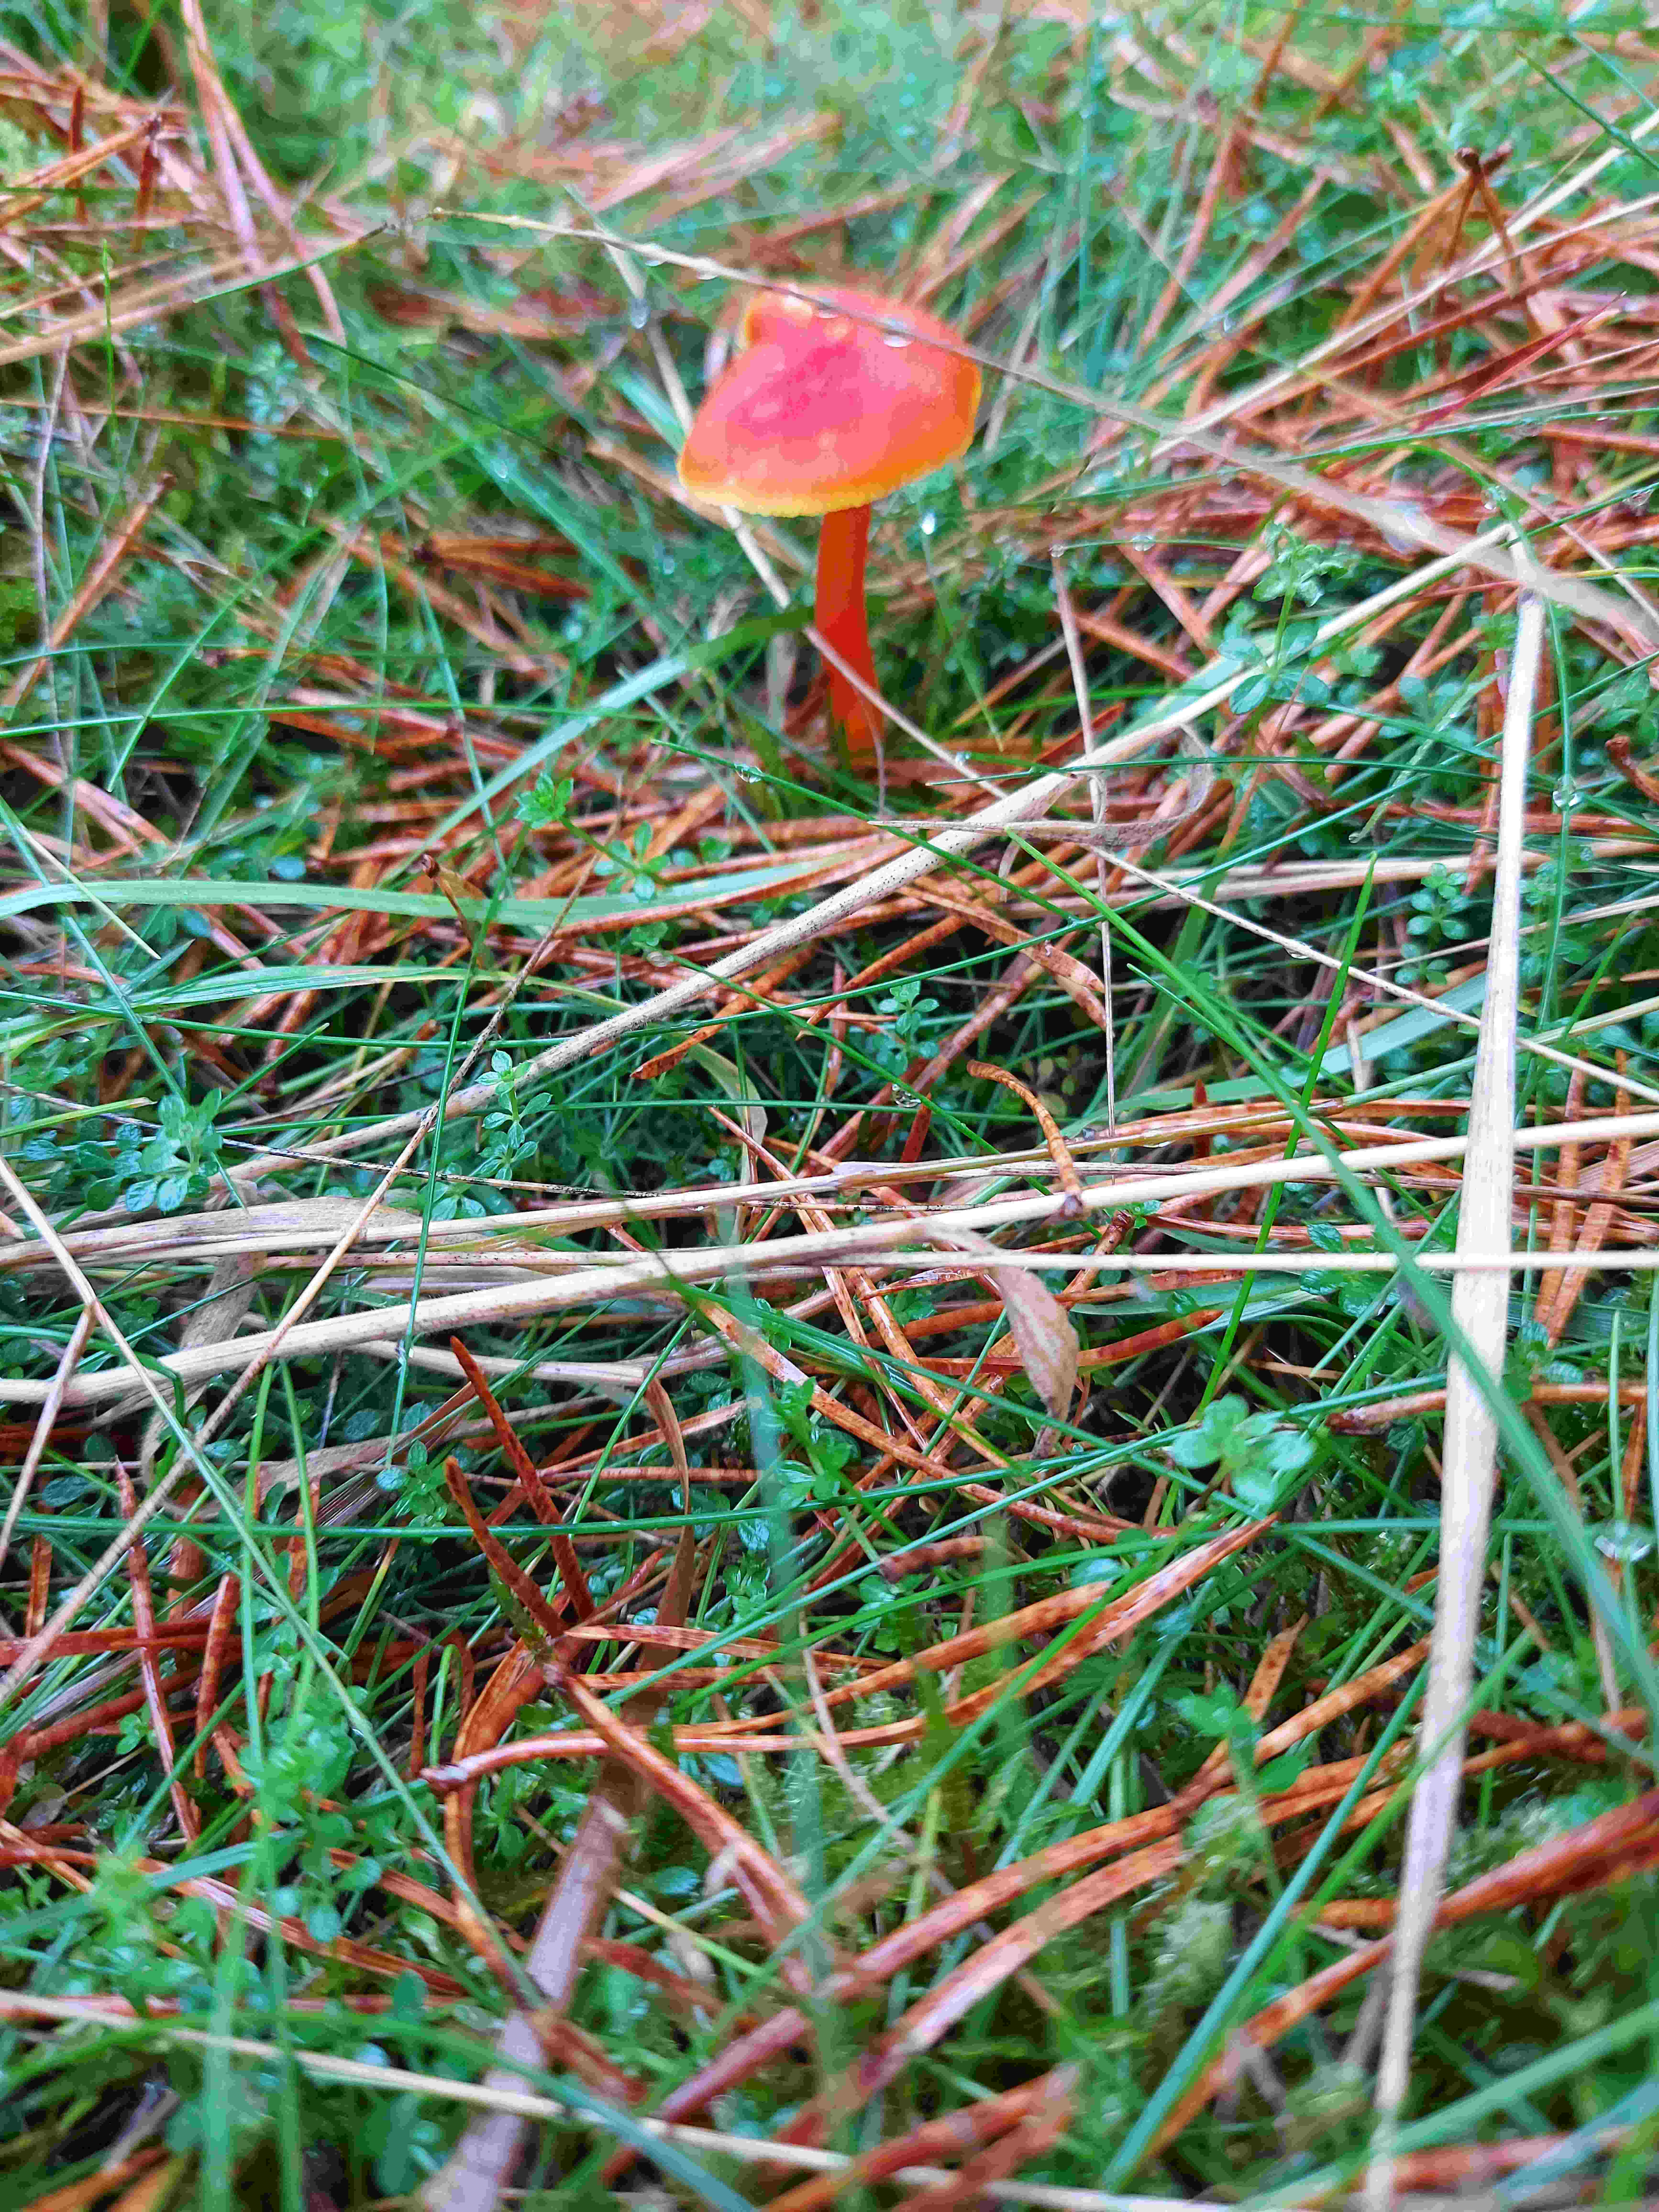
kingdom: Fungi
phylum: Basidiomycota
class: Agaricomycetes
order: Agaricales
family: Hygrophoraceae
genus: Hygrocybe
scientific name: Hygrocybe miniata
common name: mønje-vokshat
